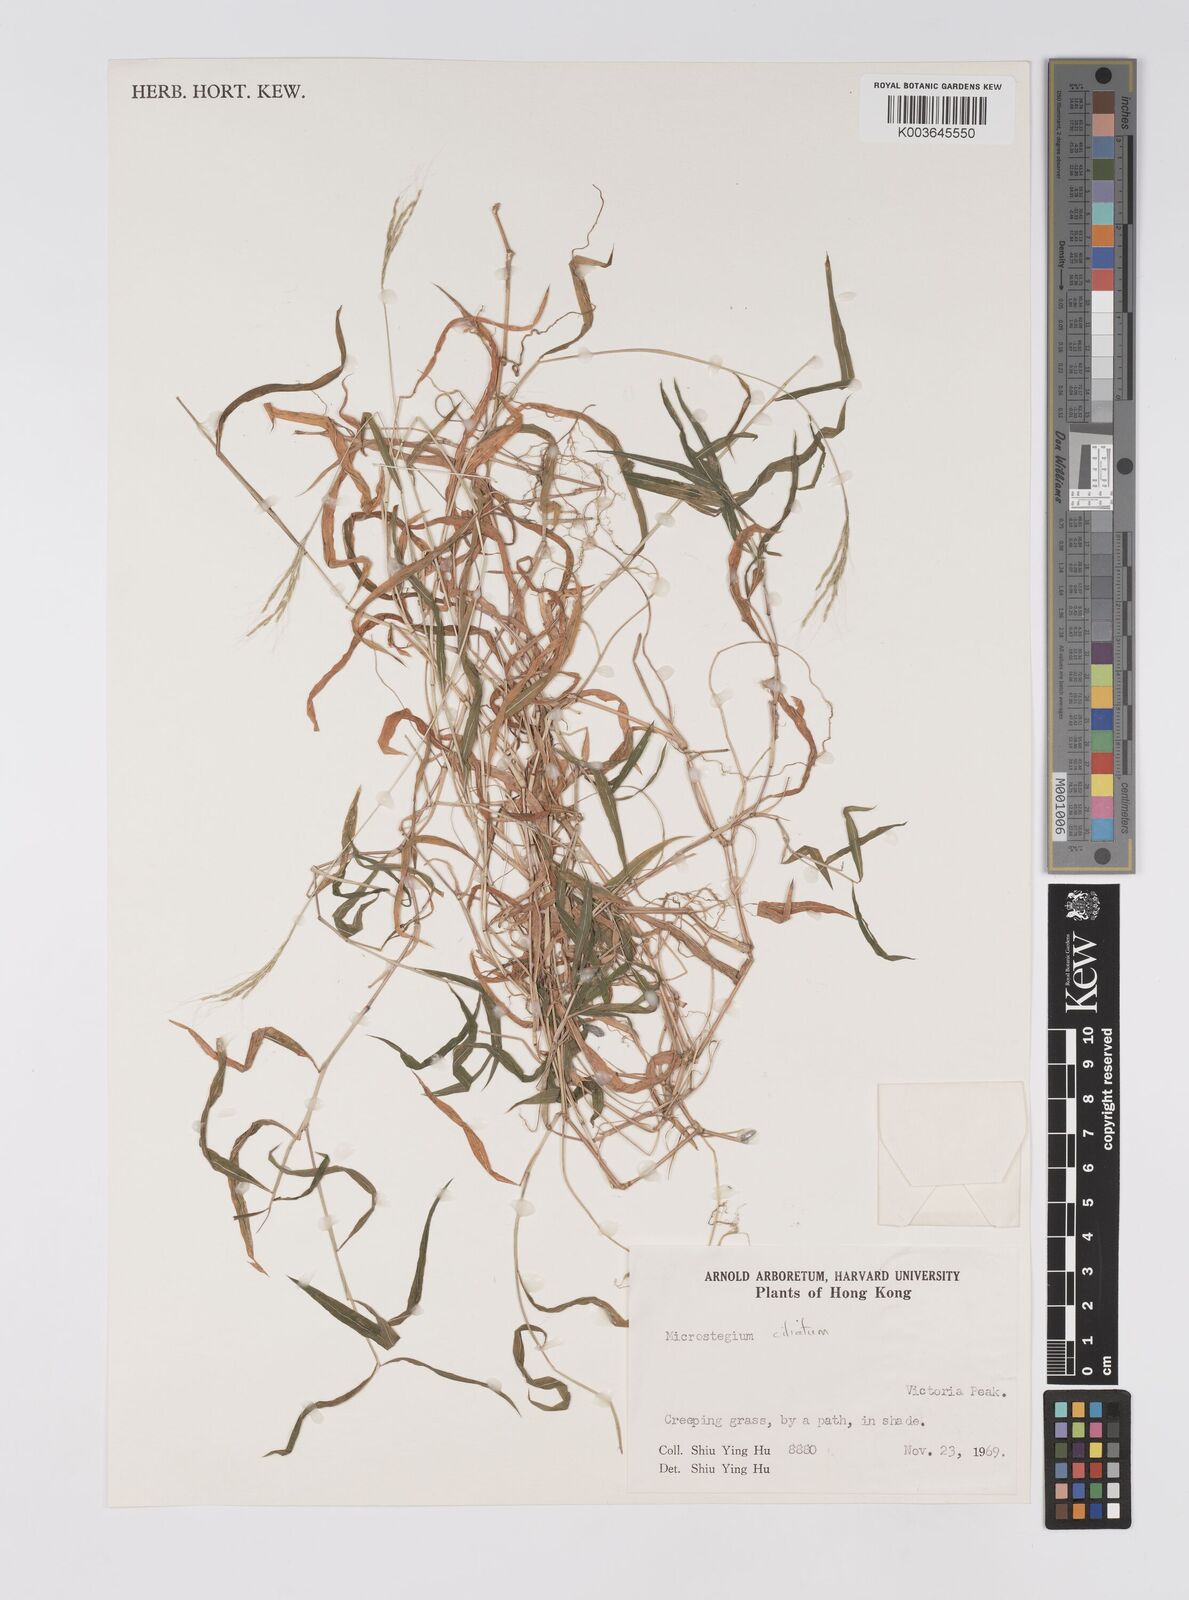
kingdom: Plantae
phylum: Tracheophyta
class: Liliopsida
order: Poales
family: Poaceae
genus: Microstegium
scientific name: Microstegium fasciculatum
